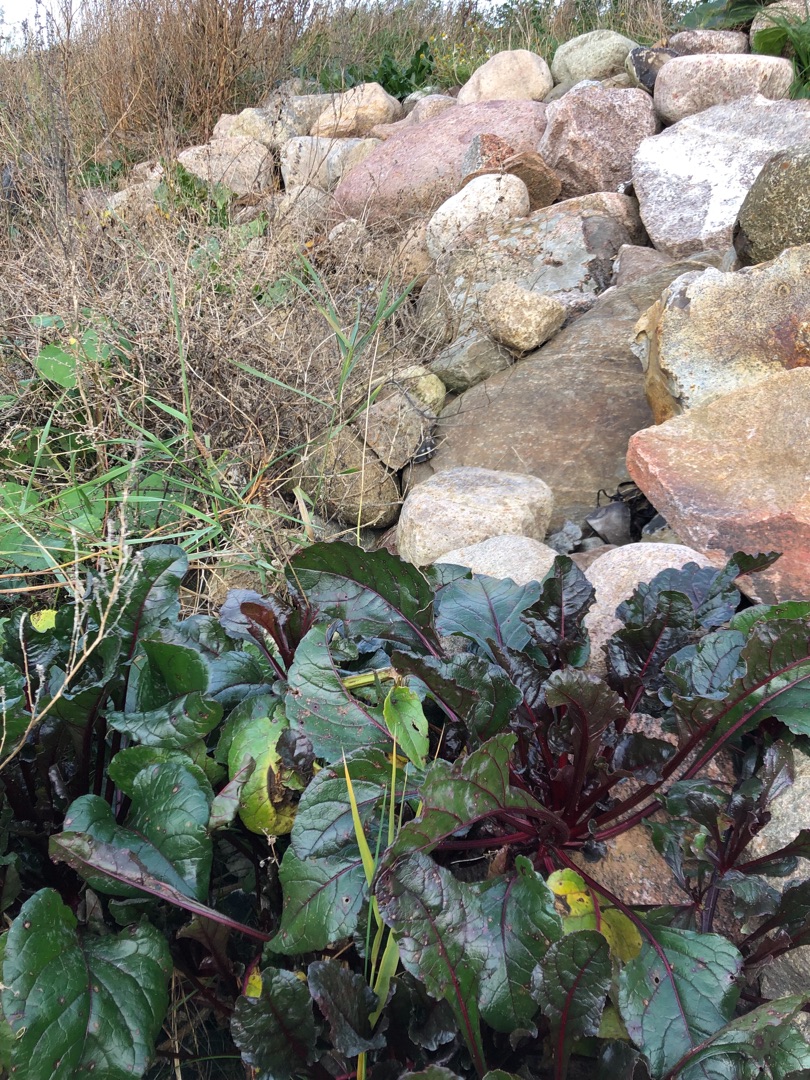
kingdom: Plantae
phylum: Tracheophyta
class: Magnoliopsida
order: Caryophyllales
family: Amaranthaceae
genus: Beta
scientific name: Beta vulgaris
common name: Bede
